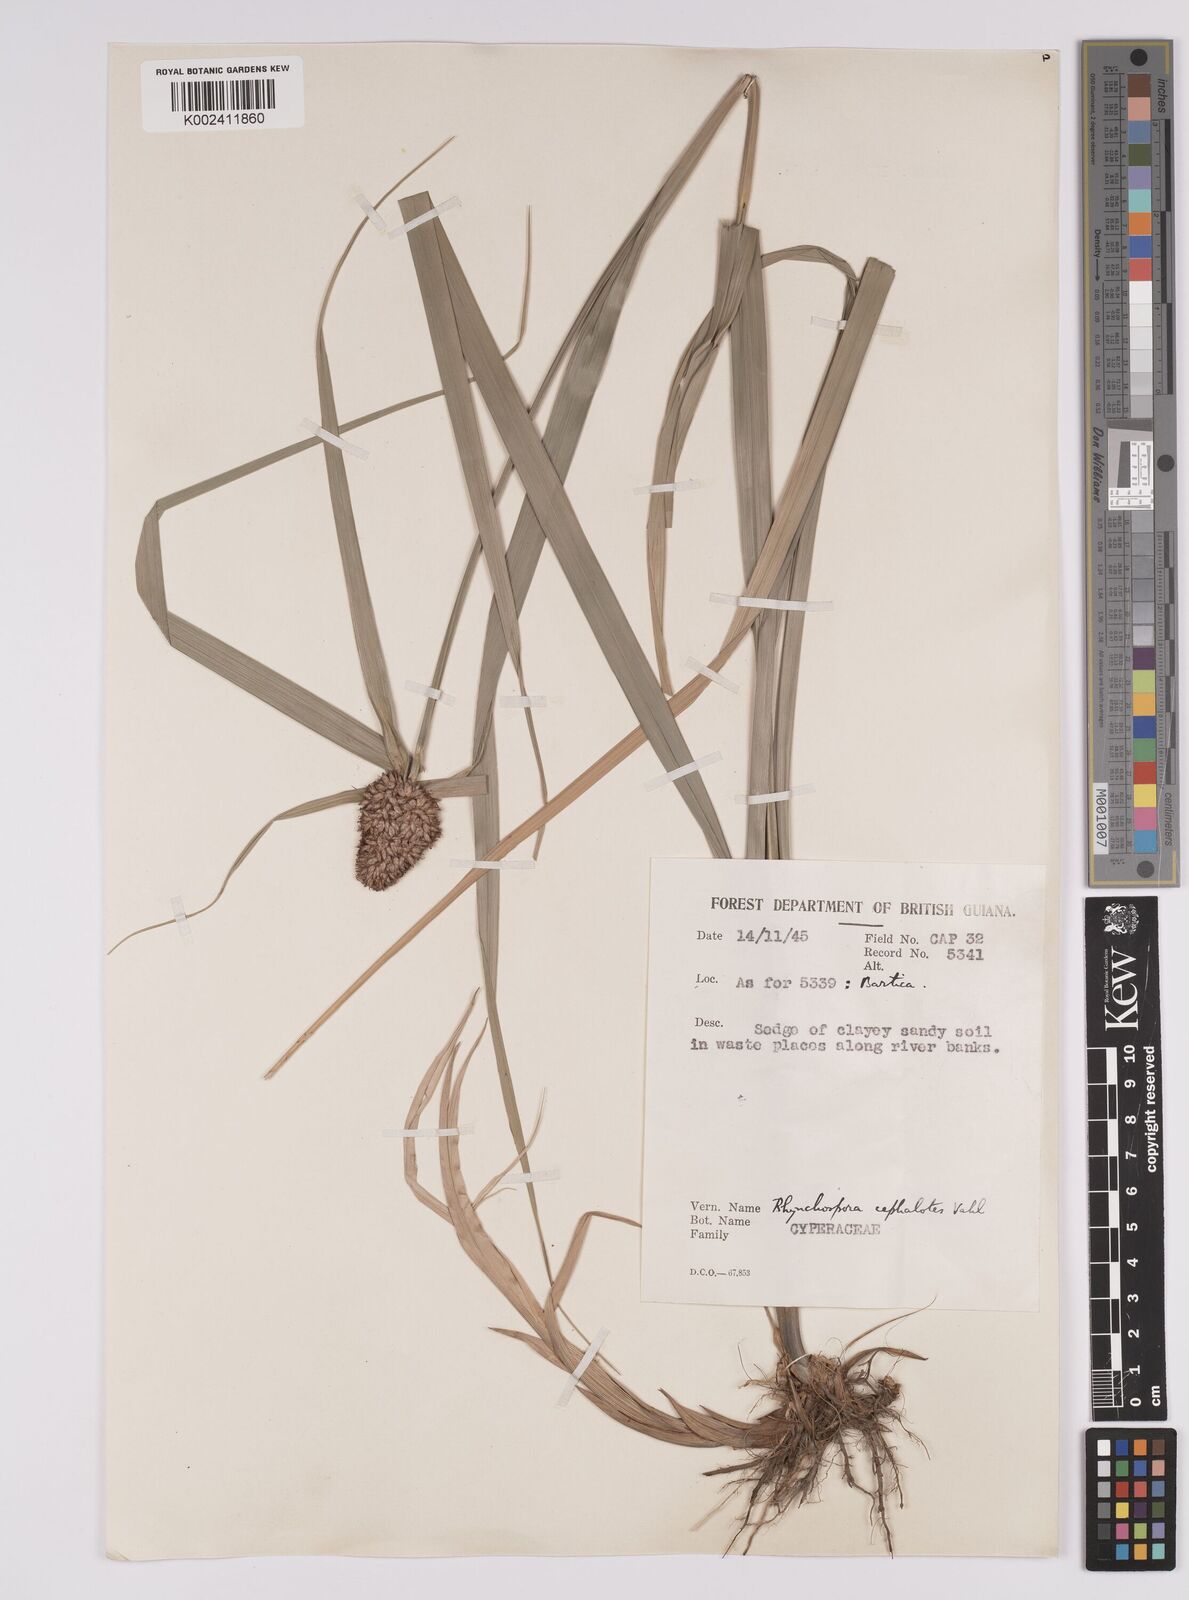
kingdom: Plantae
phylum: Tracheophyta
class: Liliopsida
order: Poales
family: Cyperaceae
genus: Rhynchospora
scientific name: Rhynchospora cephalotes
